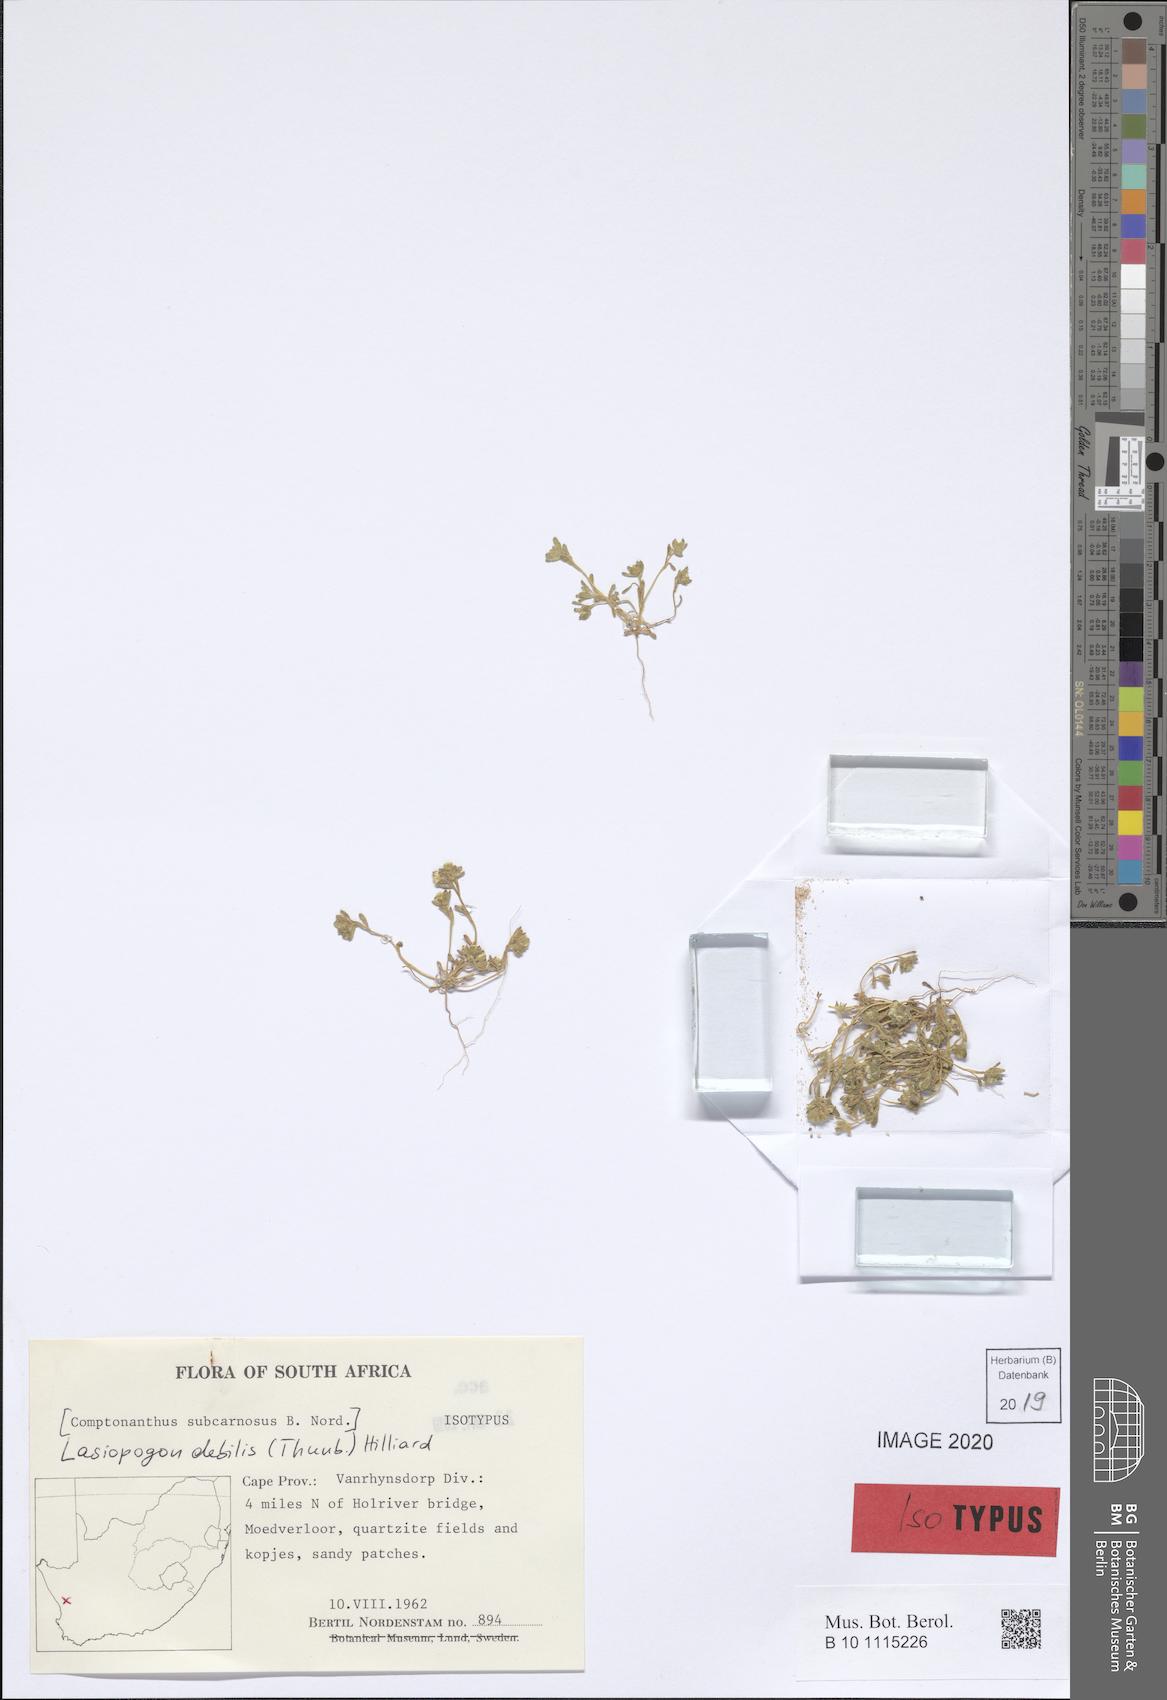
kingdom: Plantae
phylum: Tracheophyta
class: Magnoliopsida
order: Asterales
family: Asteraceae
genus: Lasiopogon
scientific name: Lasiopogon debilis
